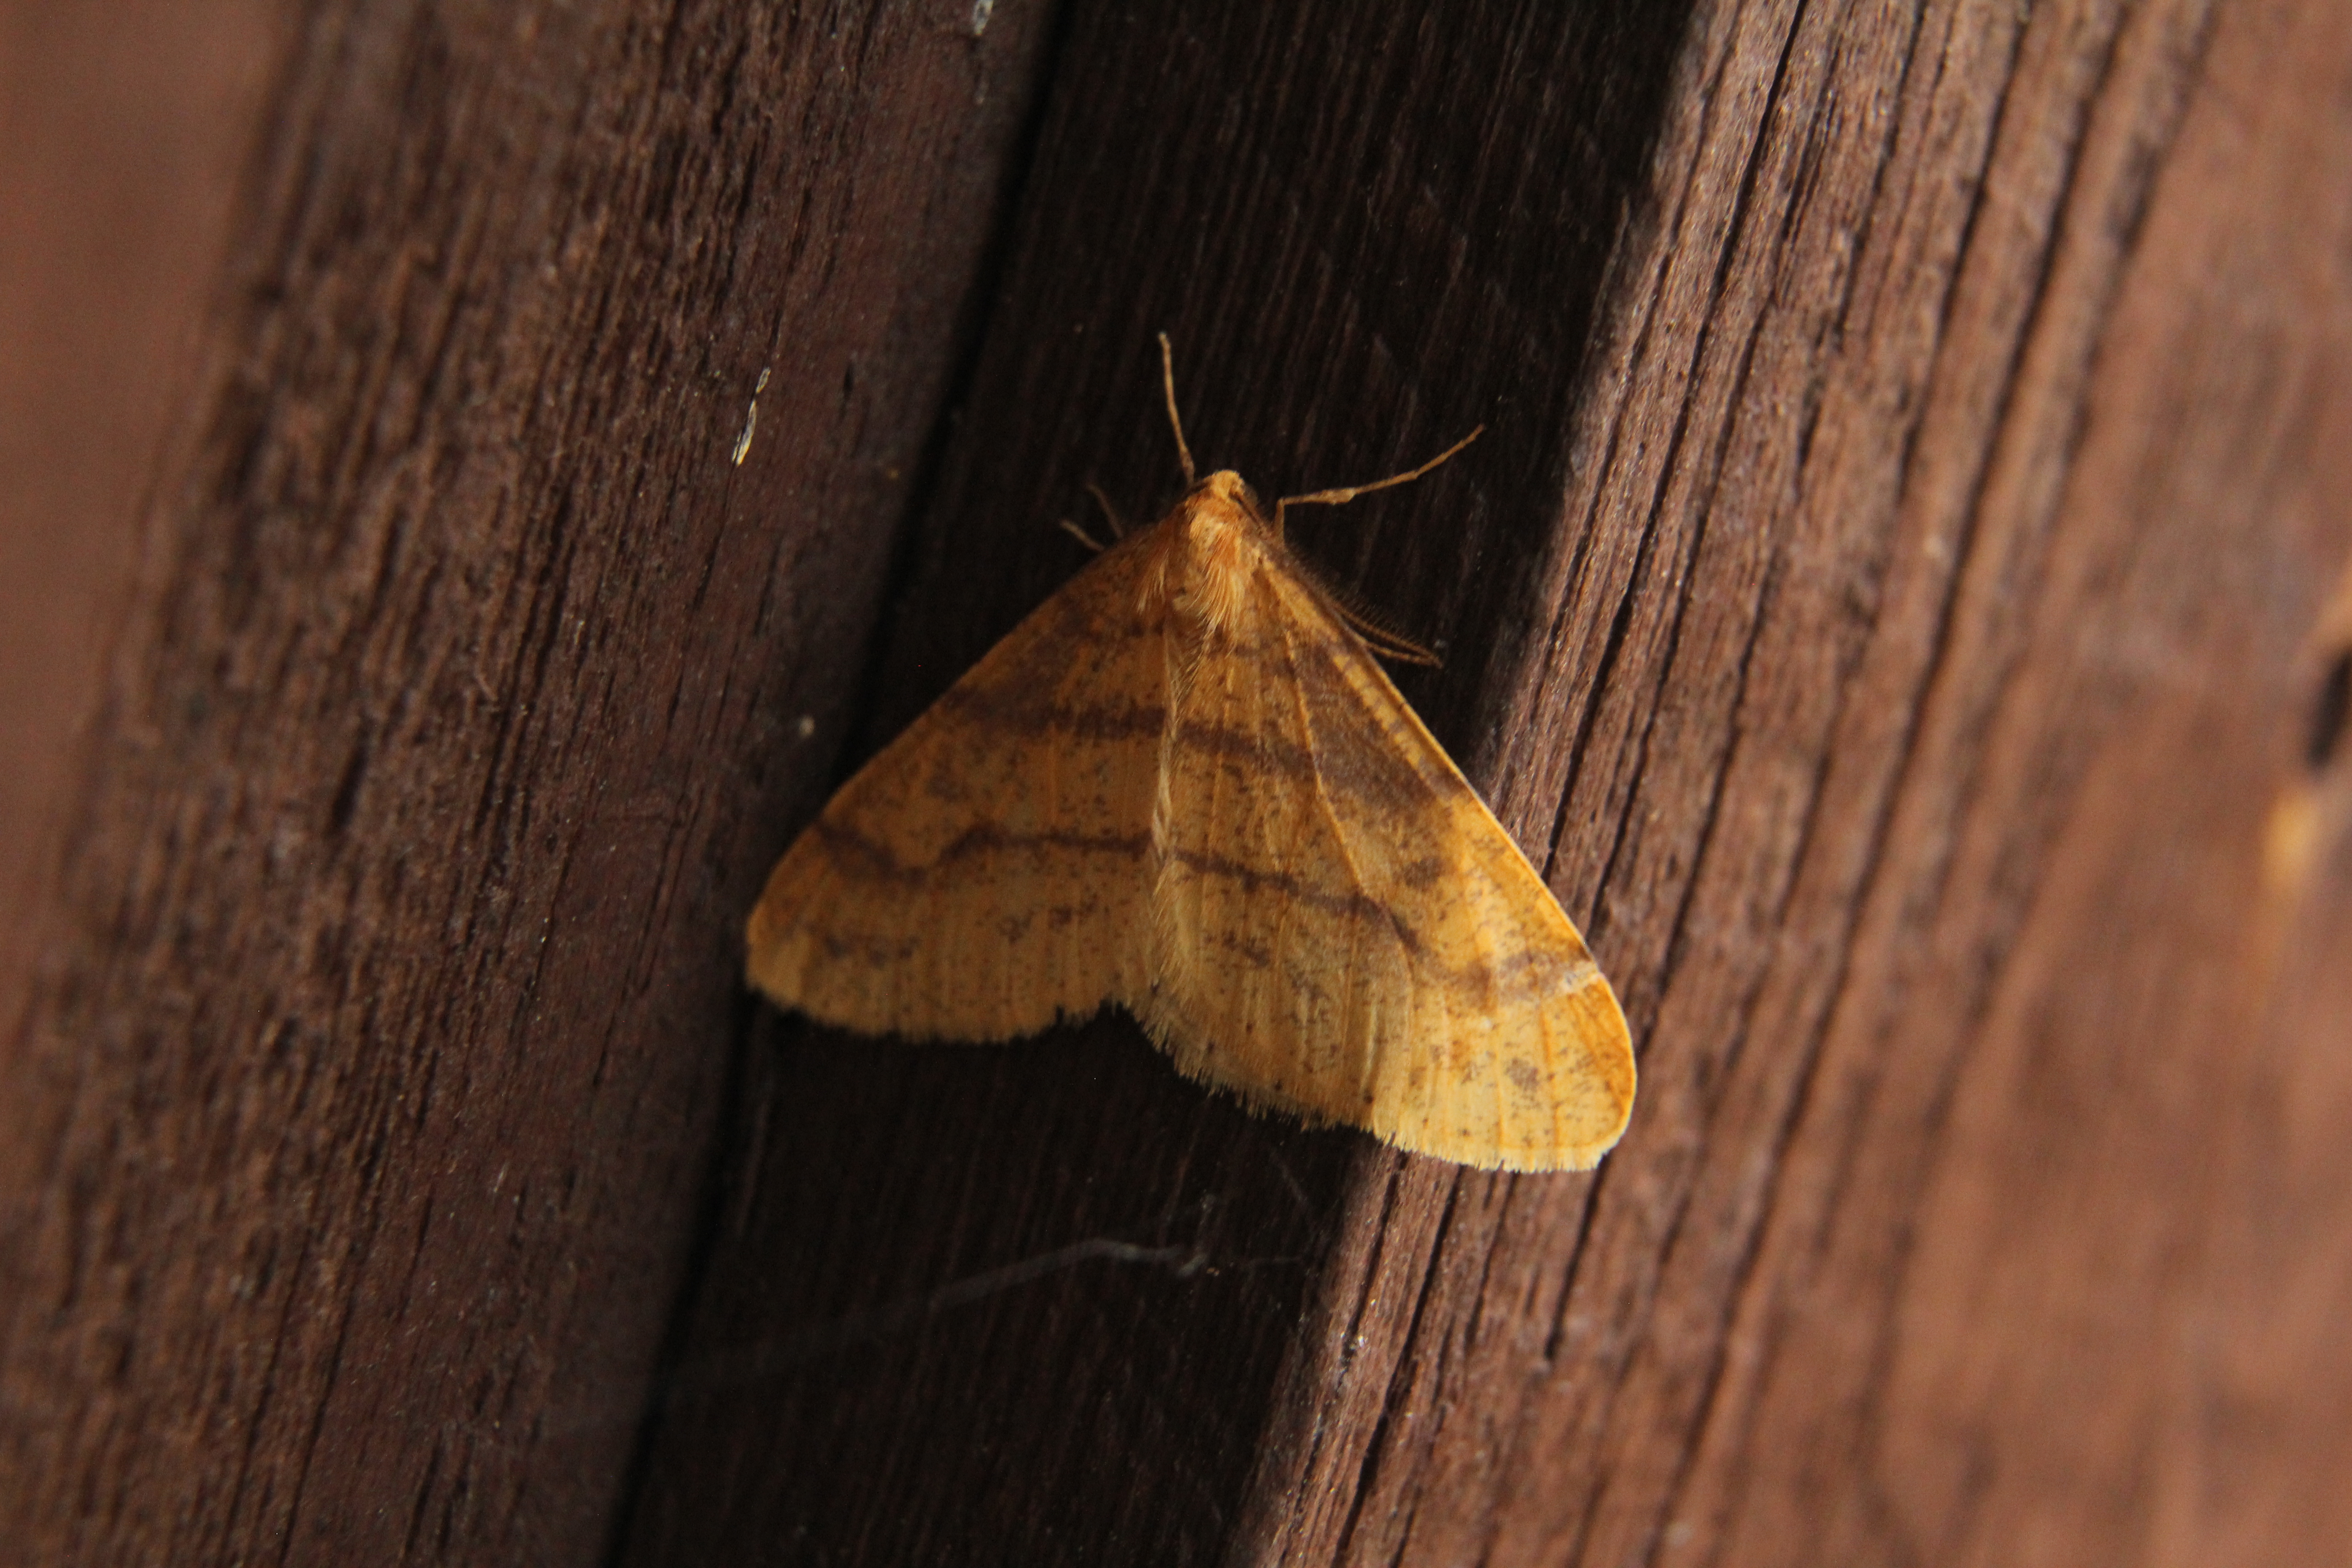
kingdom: Animalia
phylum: Arthropoda
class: Insecta
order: Lepidoptera
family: Geometridae
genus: Agriopis
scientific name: Agriopis aurantiaria
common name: Scarce umber
